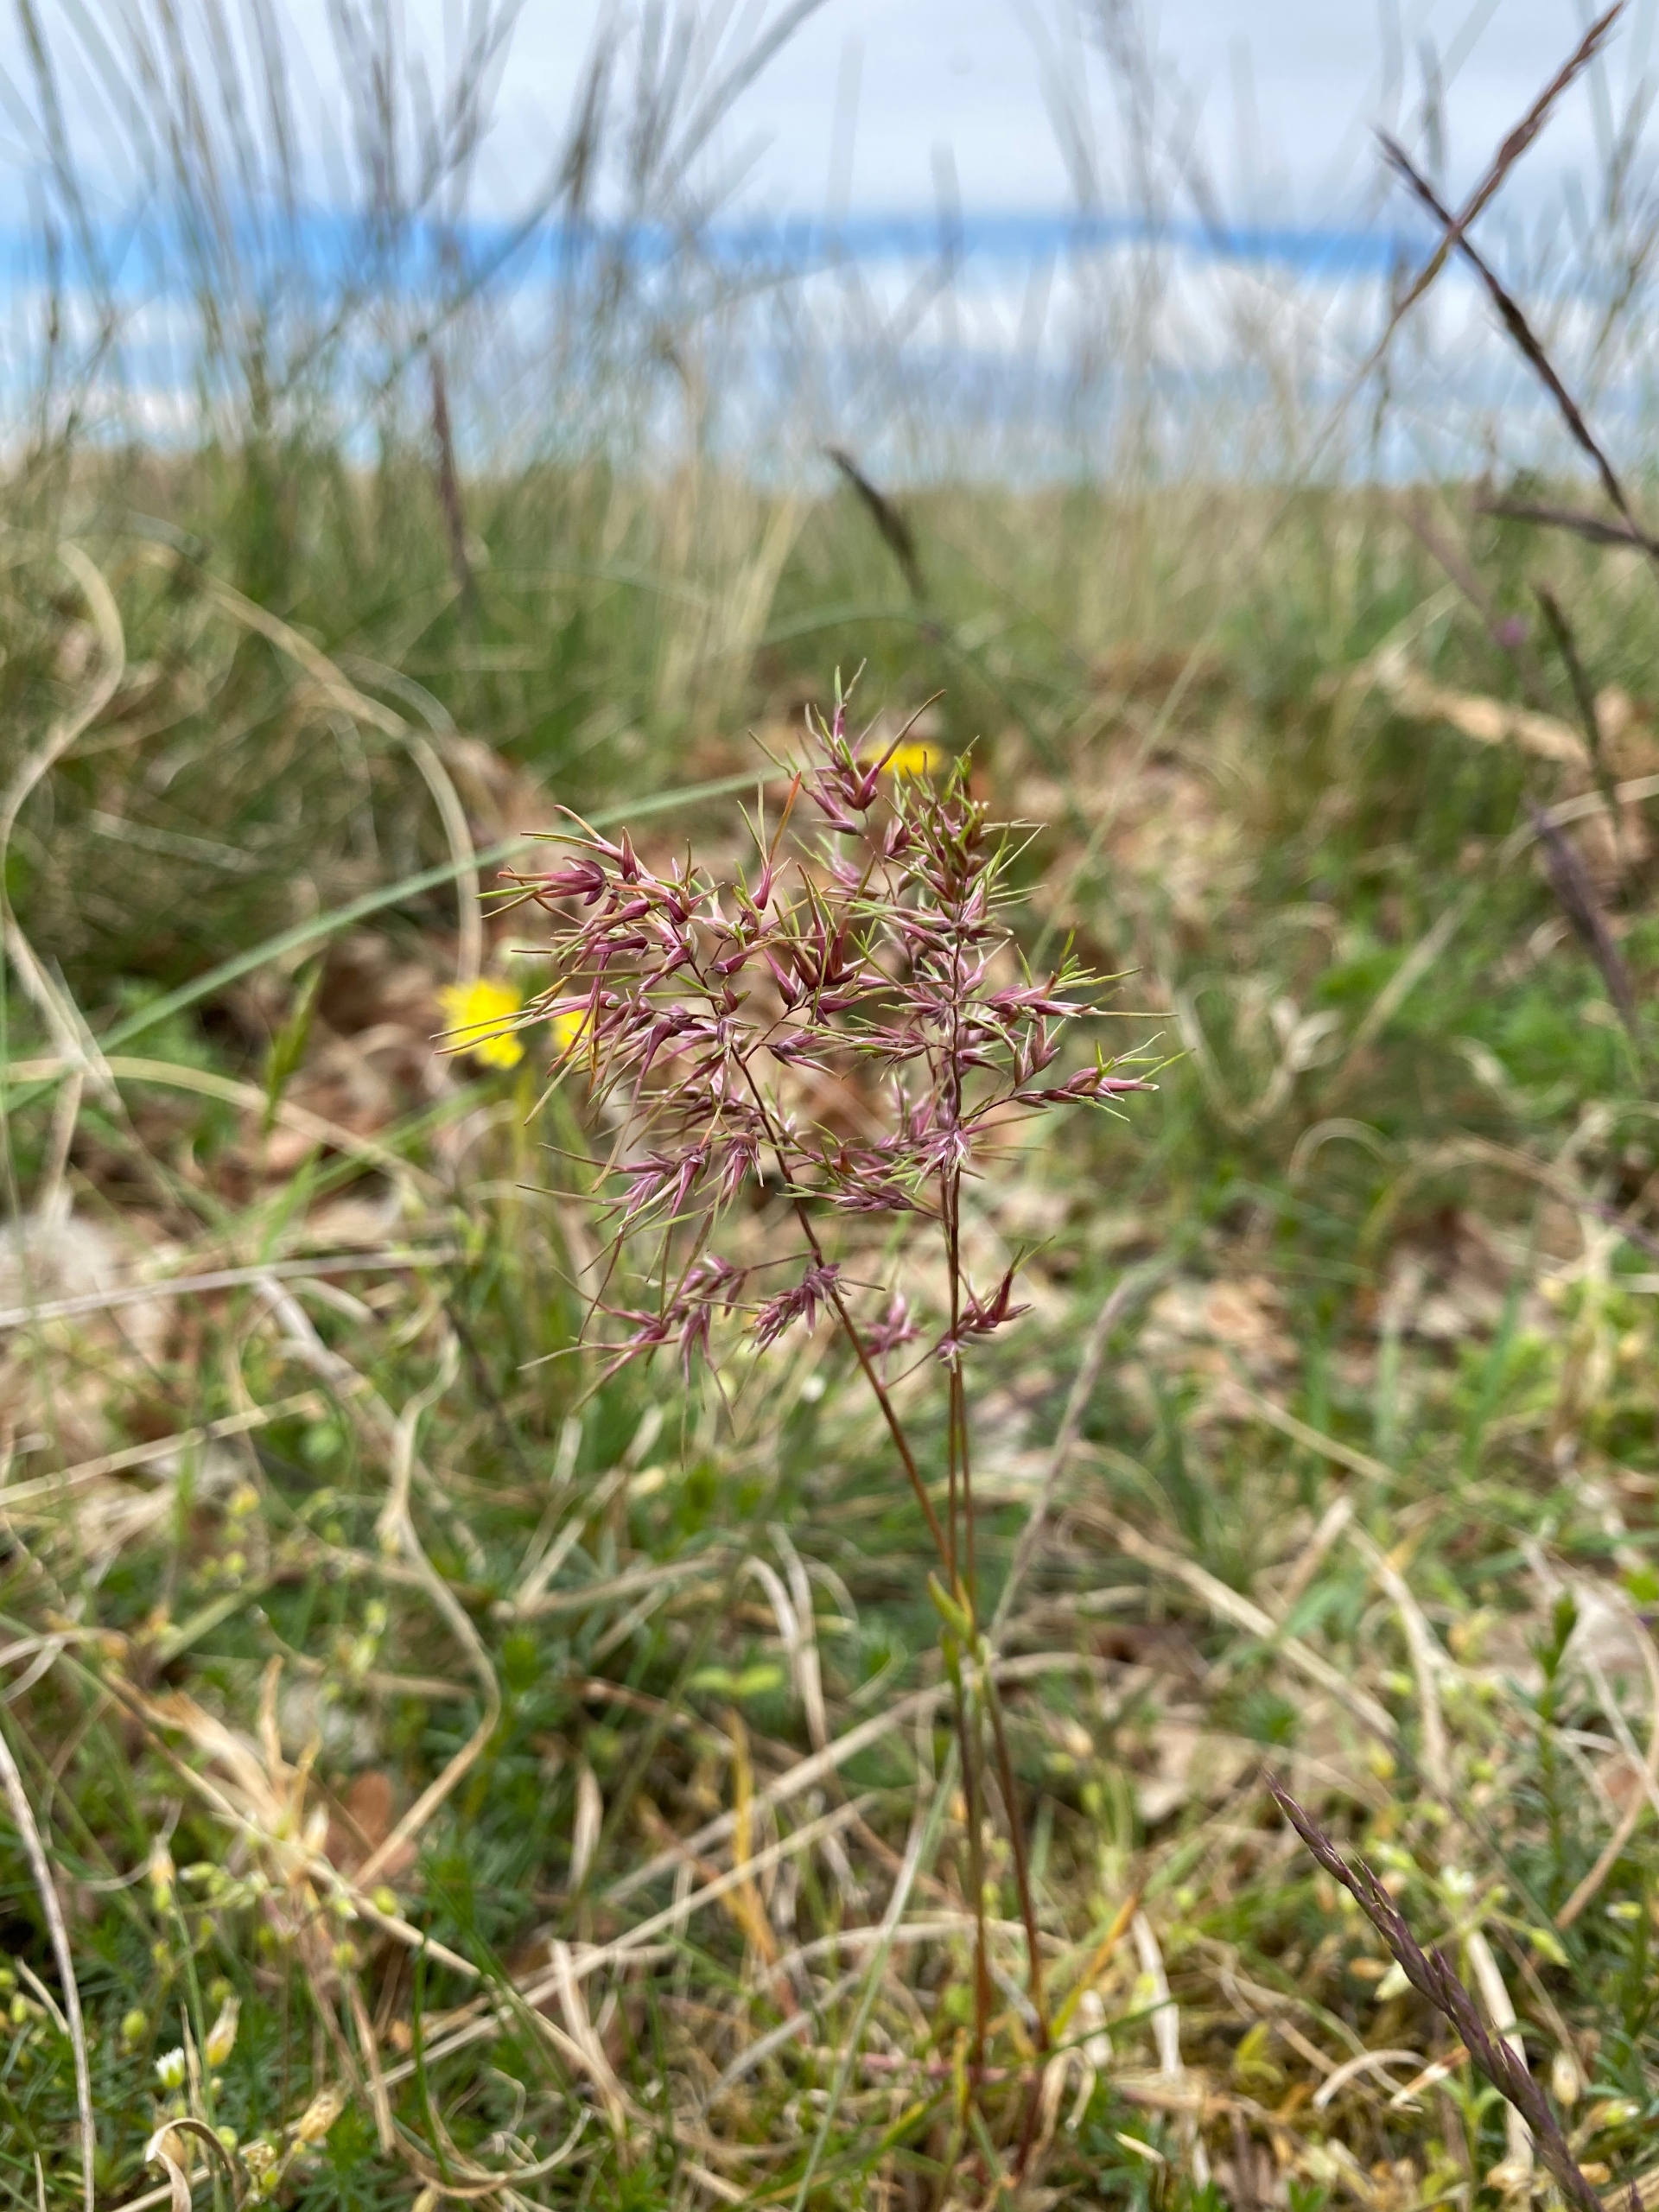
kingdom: Plantae
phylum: Tracheophyta
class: Liliopsida
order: Poales
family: Poaceae
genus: Poa
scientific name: Poa bulbosa
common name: Løg-rapgræs
